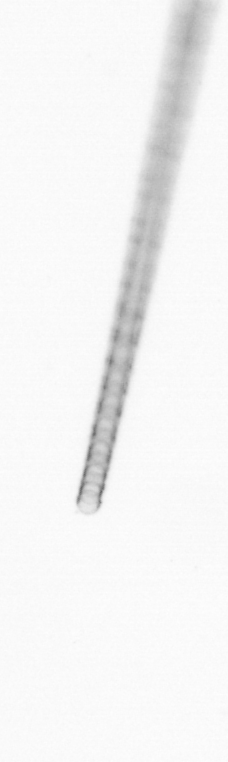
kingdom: Chromista
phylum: Ochrophyta
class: Bacillariophyceae
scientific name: Bacillariophyceae
